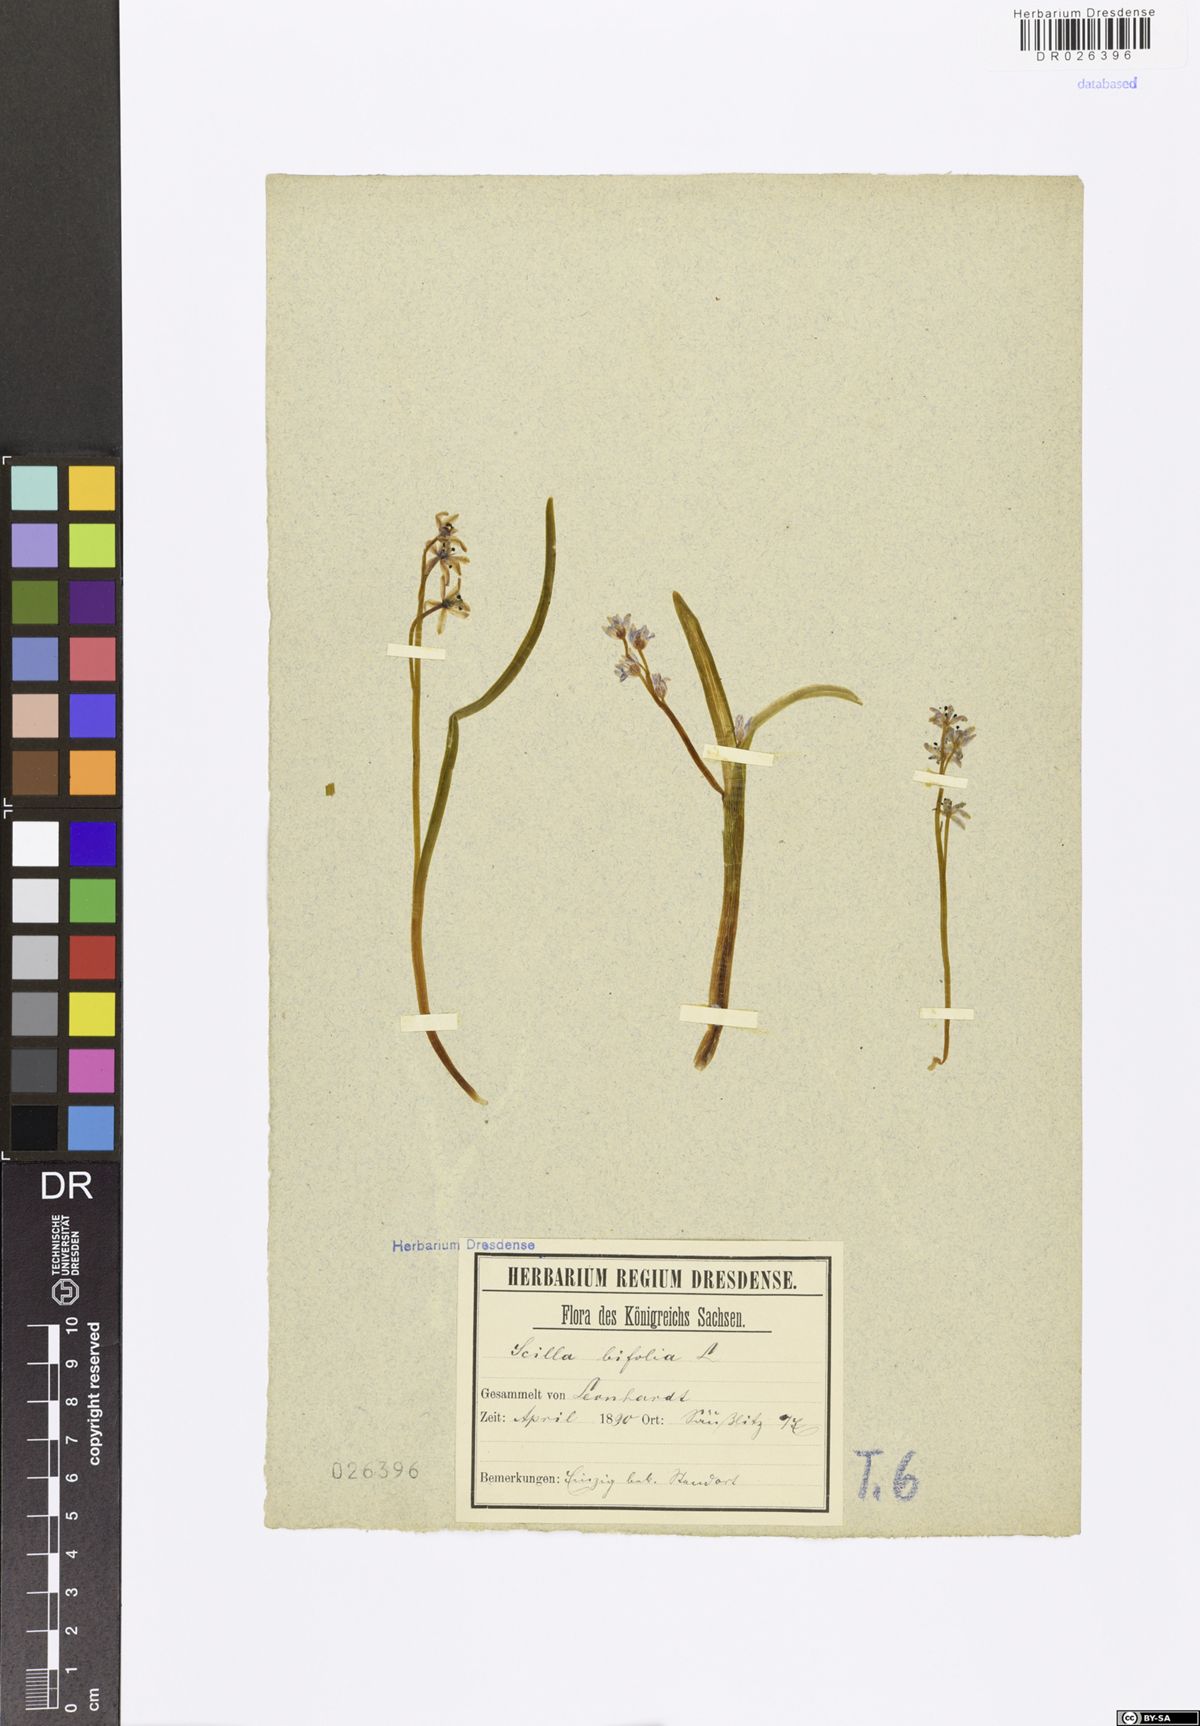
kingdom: Plantae
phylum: Tracheophyta
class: Liliopsida
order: Asparagales
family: Asparagaceae
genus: Scilla
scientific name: Scilla vindobonensis
